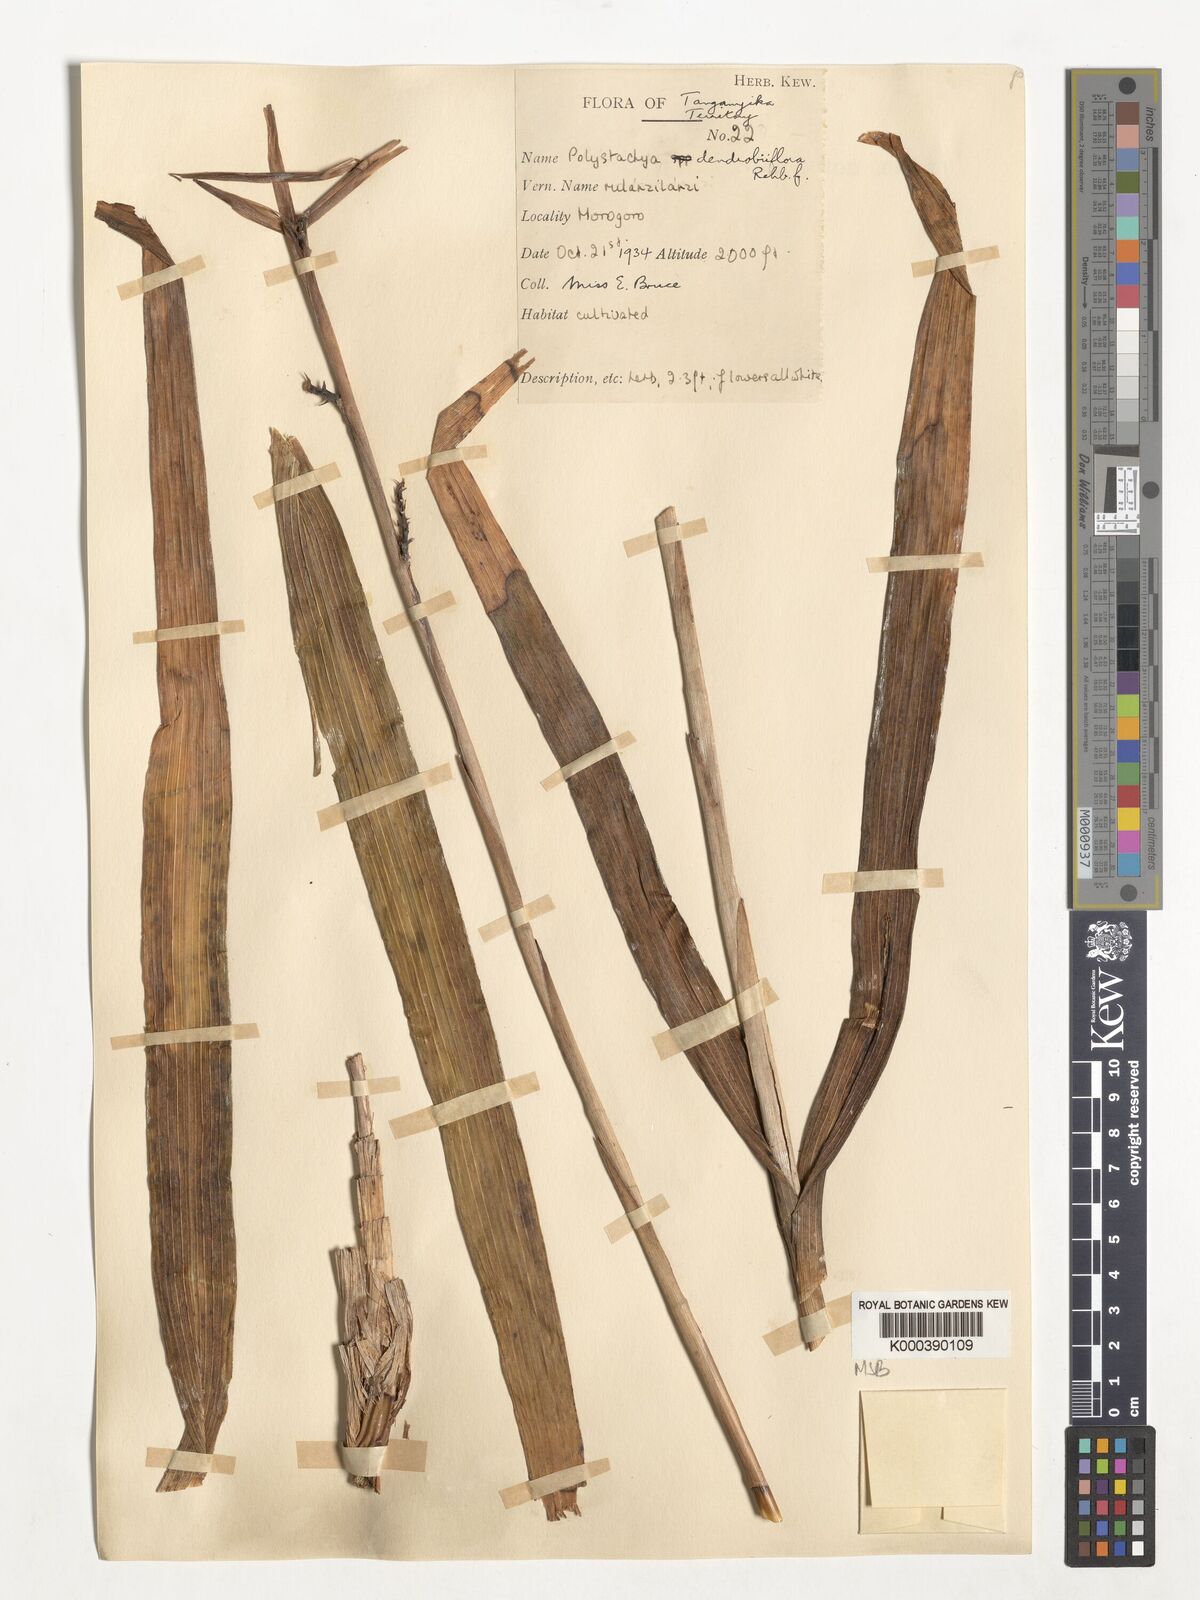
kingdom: Plantae
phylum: Tracheophyta
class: Liliopsida
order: Asparagales
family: Orchidaceae
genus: Polystachya
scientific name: Polystachya longiscapa
